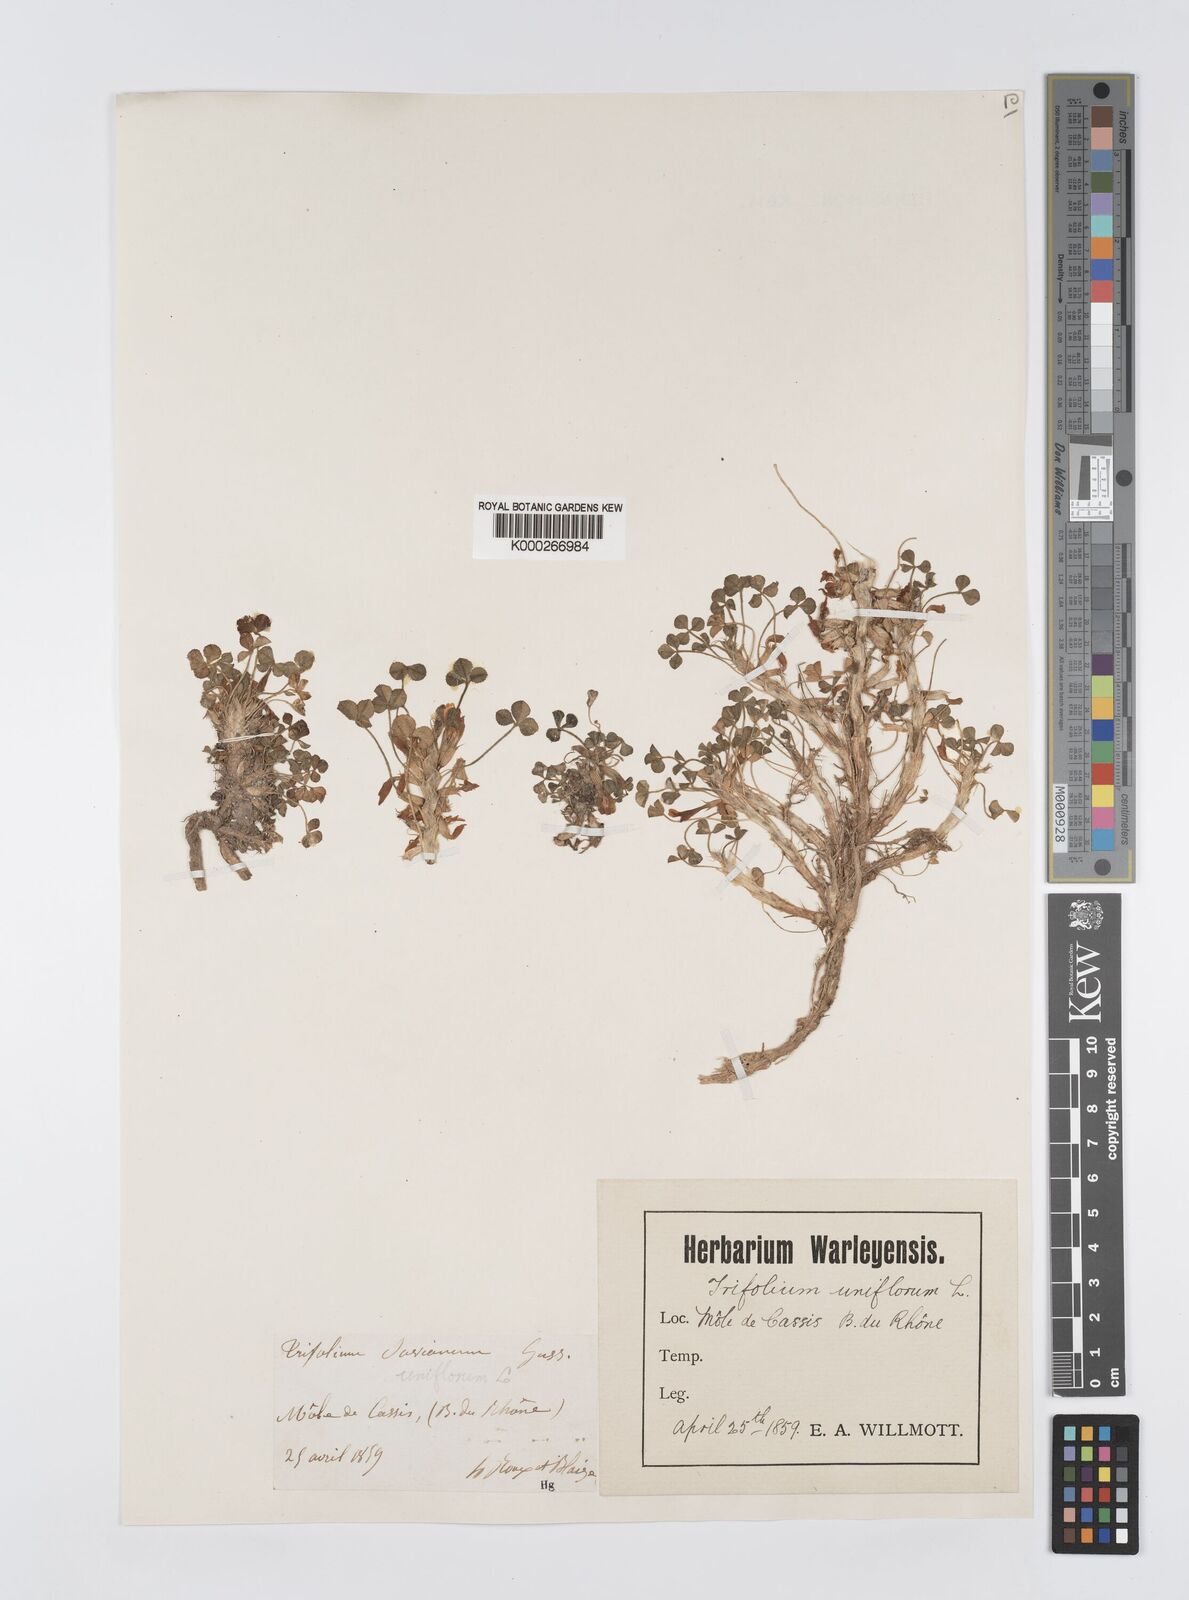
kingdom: Plantae
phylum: Tracheophyta
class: Magnoliopsida
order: Fabales
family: Fabaceae
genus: Trifolium
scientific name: Trifolium uniflorum
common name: One-flower clover
